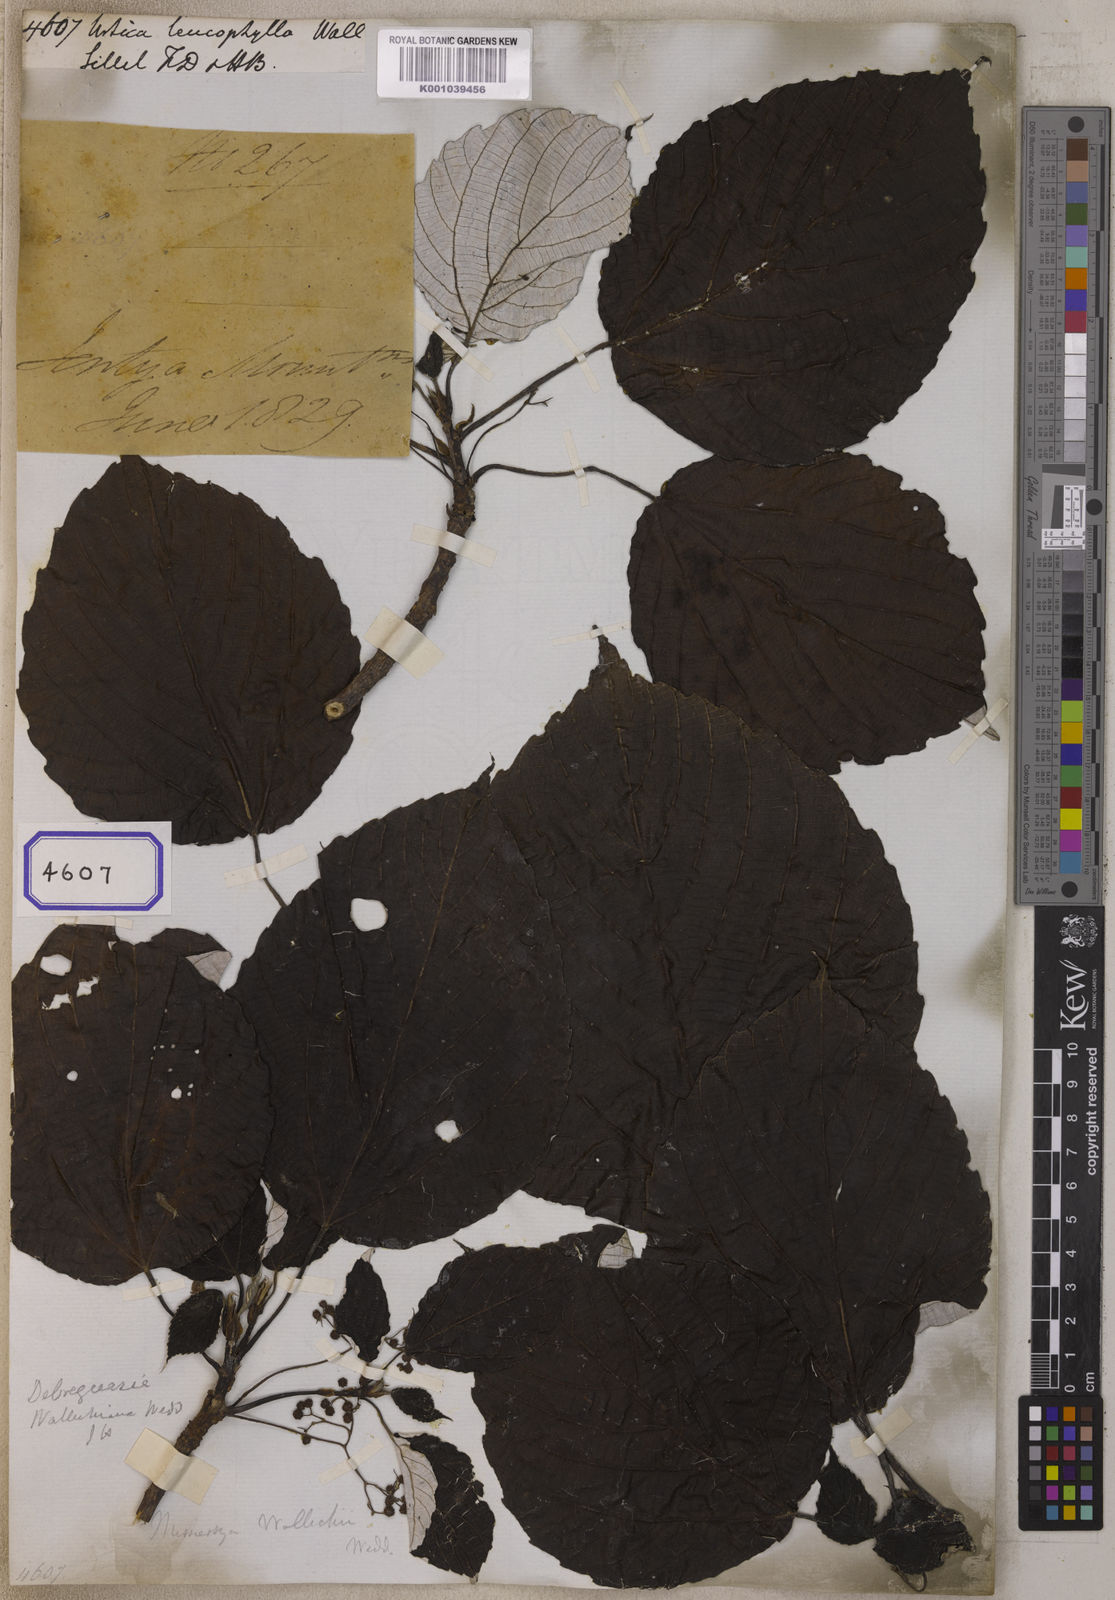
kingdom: Plantae
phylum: Tracheophyta
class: Magnoliopsida
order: Rosales
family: Urticaceae
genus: Debregeasia
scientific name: Debregeasia wallichiana
